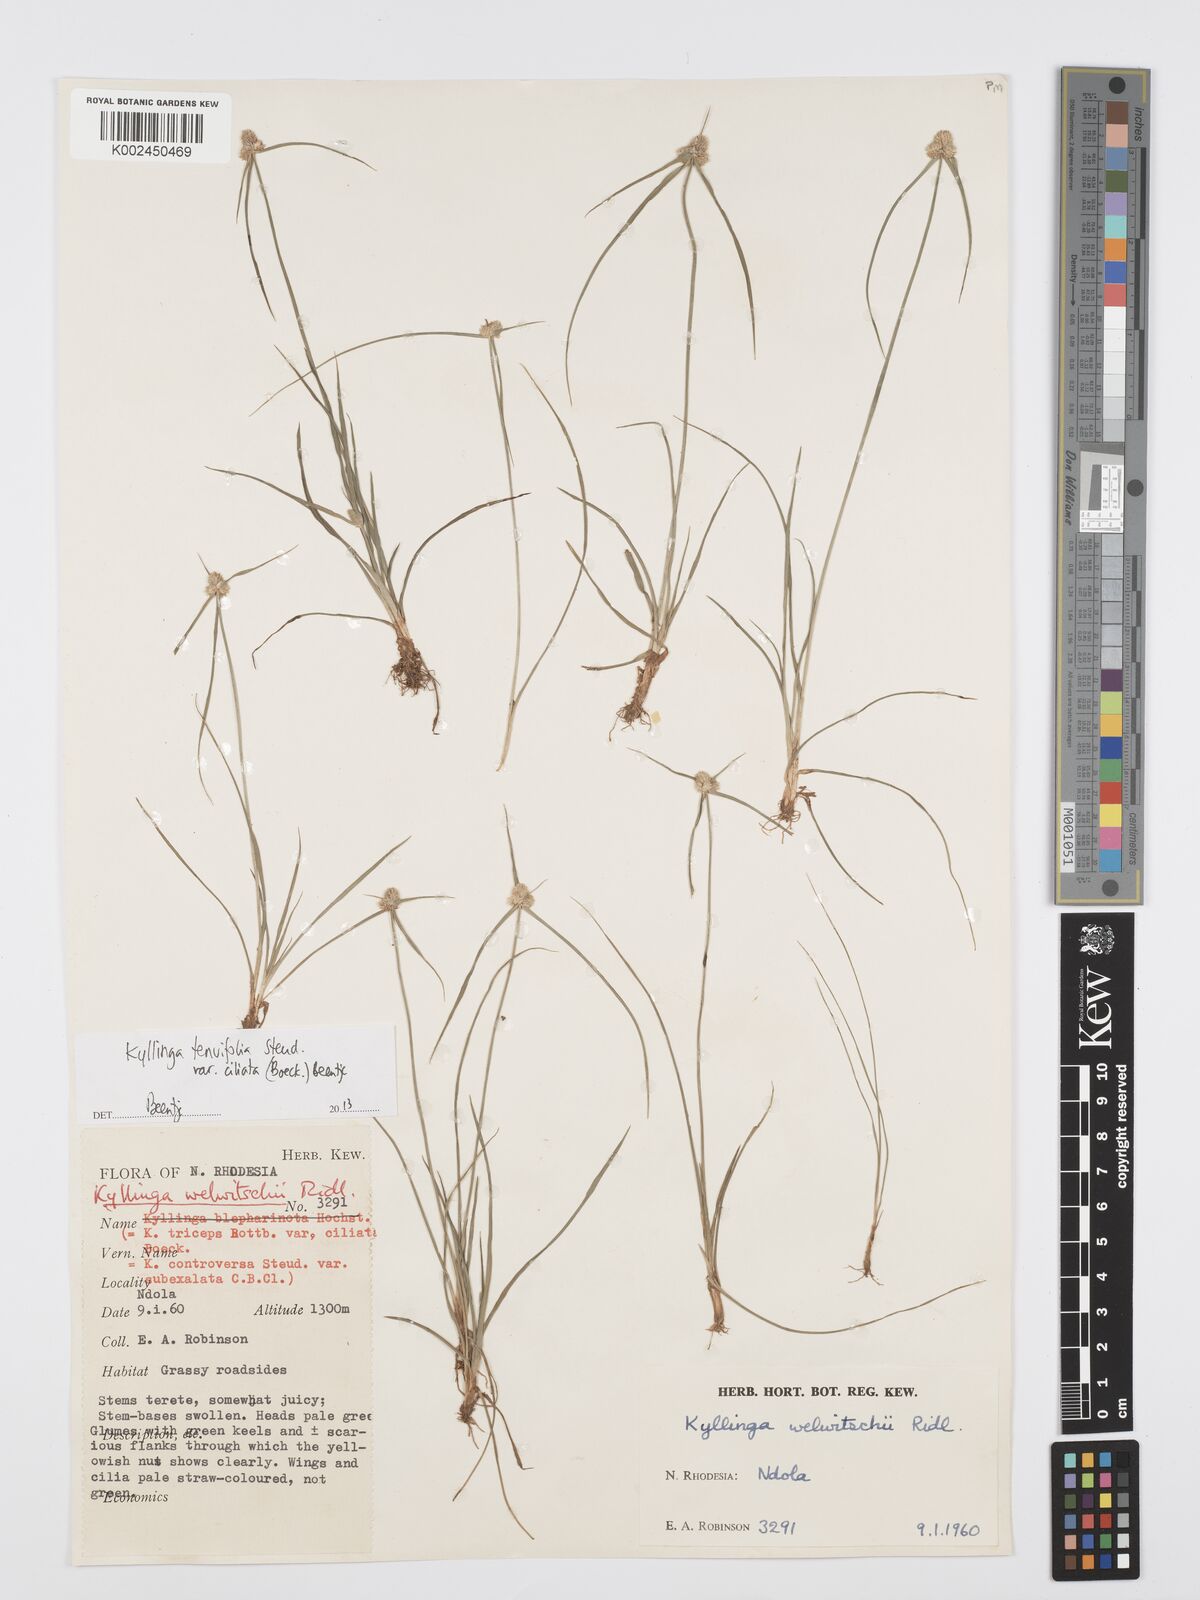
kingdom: Plantae
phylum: Tracheophyta
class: Liliopsida
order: Poales
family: Cyperaceae
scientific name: Cyperaceae
